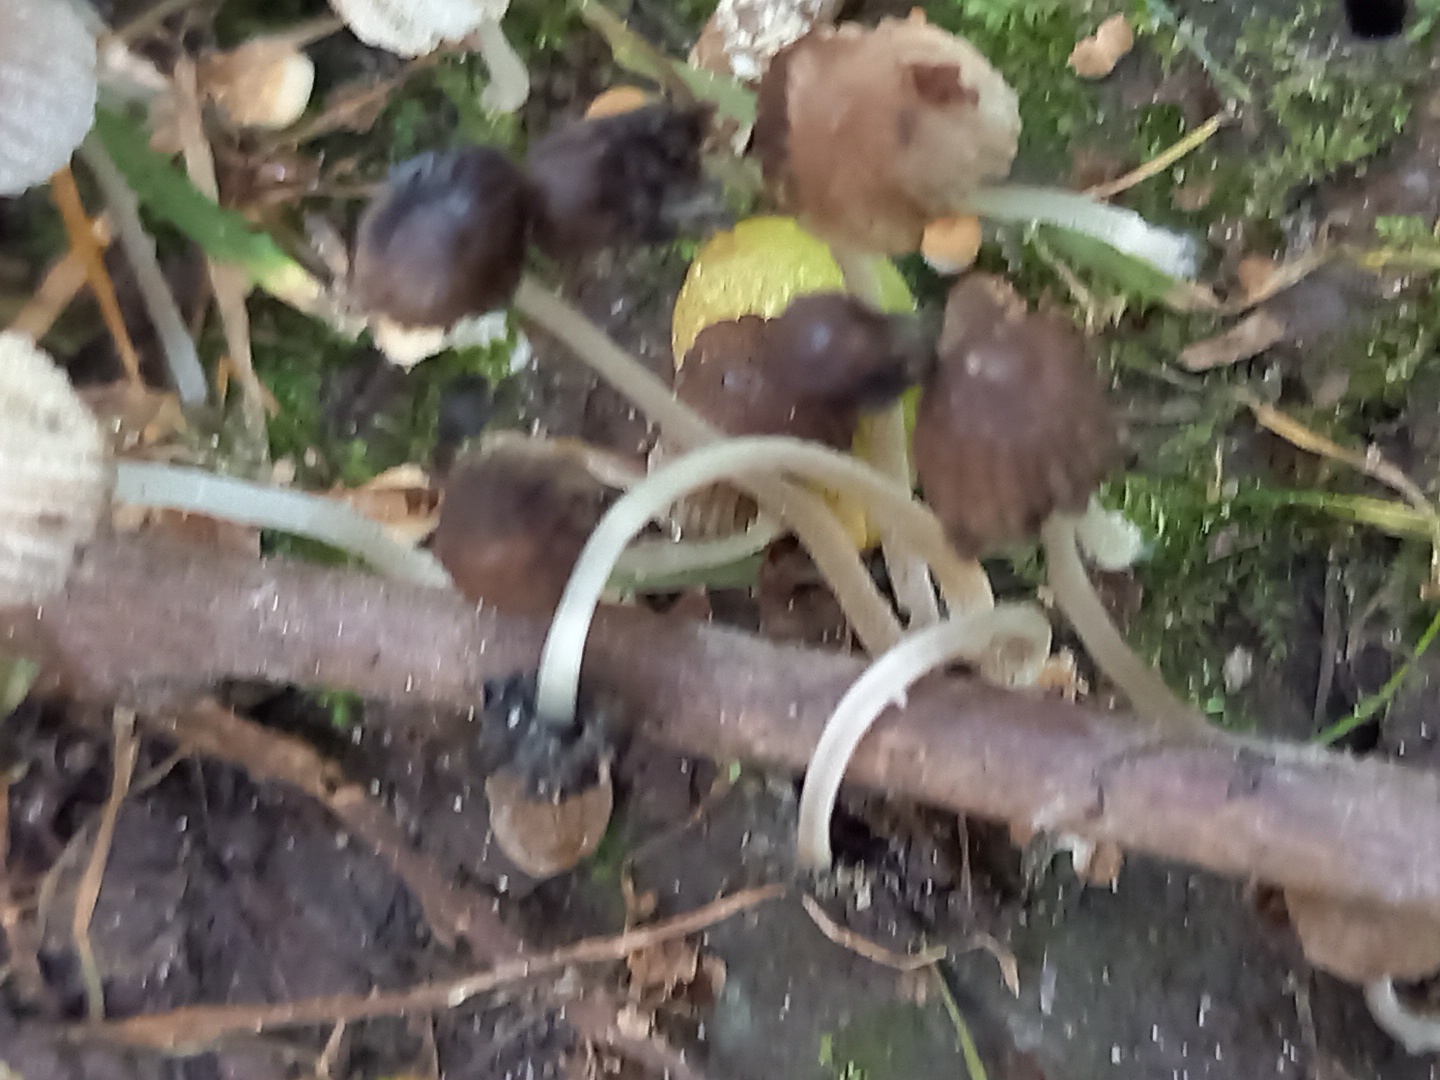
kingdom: Fungi
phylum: Basidiomycota
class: Agaricomycetes
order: Agaricales
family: Psathyrellaceae
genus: Coprinellus
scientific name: Coprinellus disseminatus
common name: bredsået blækhat
